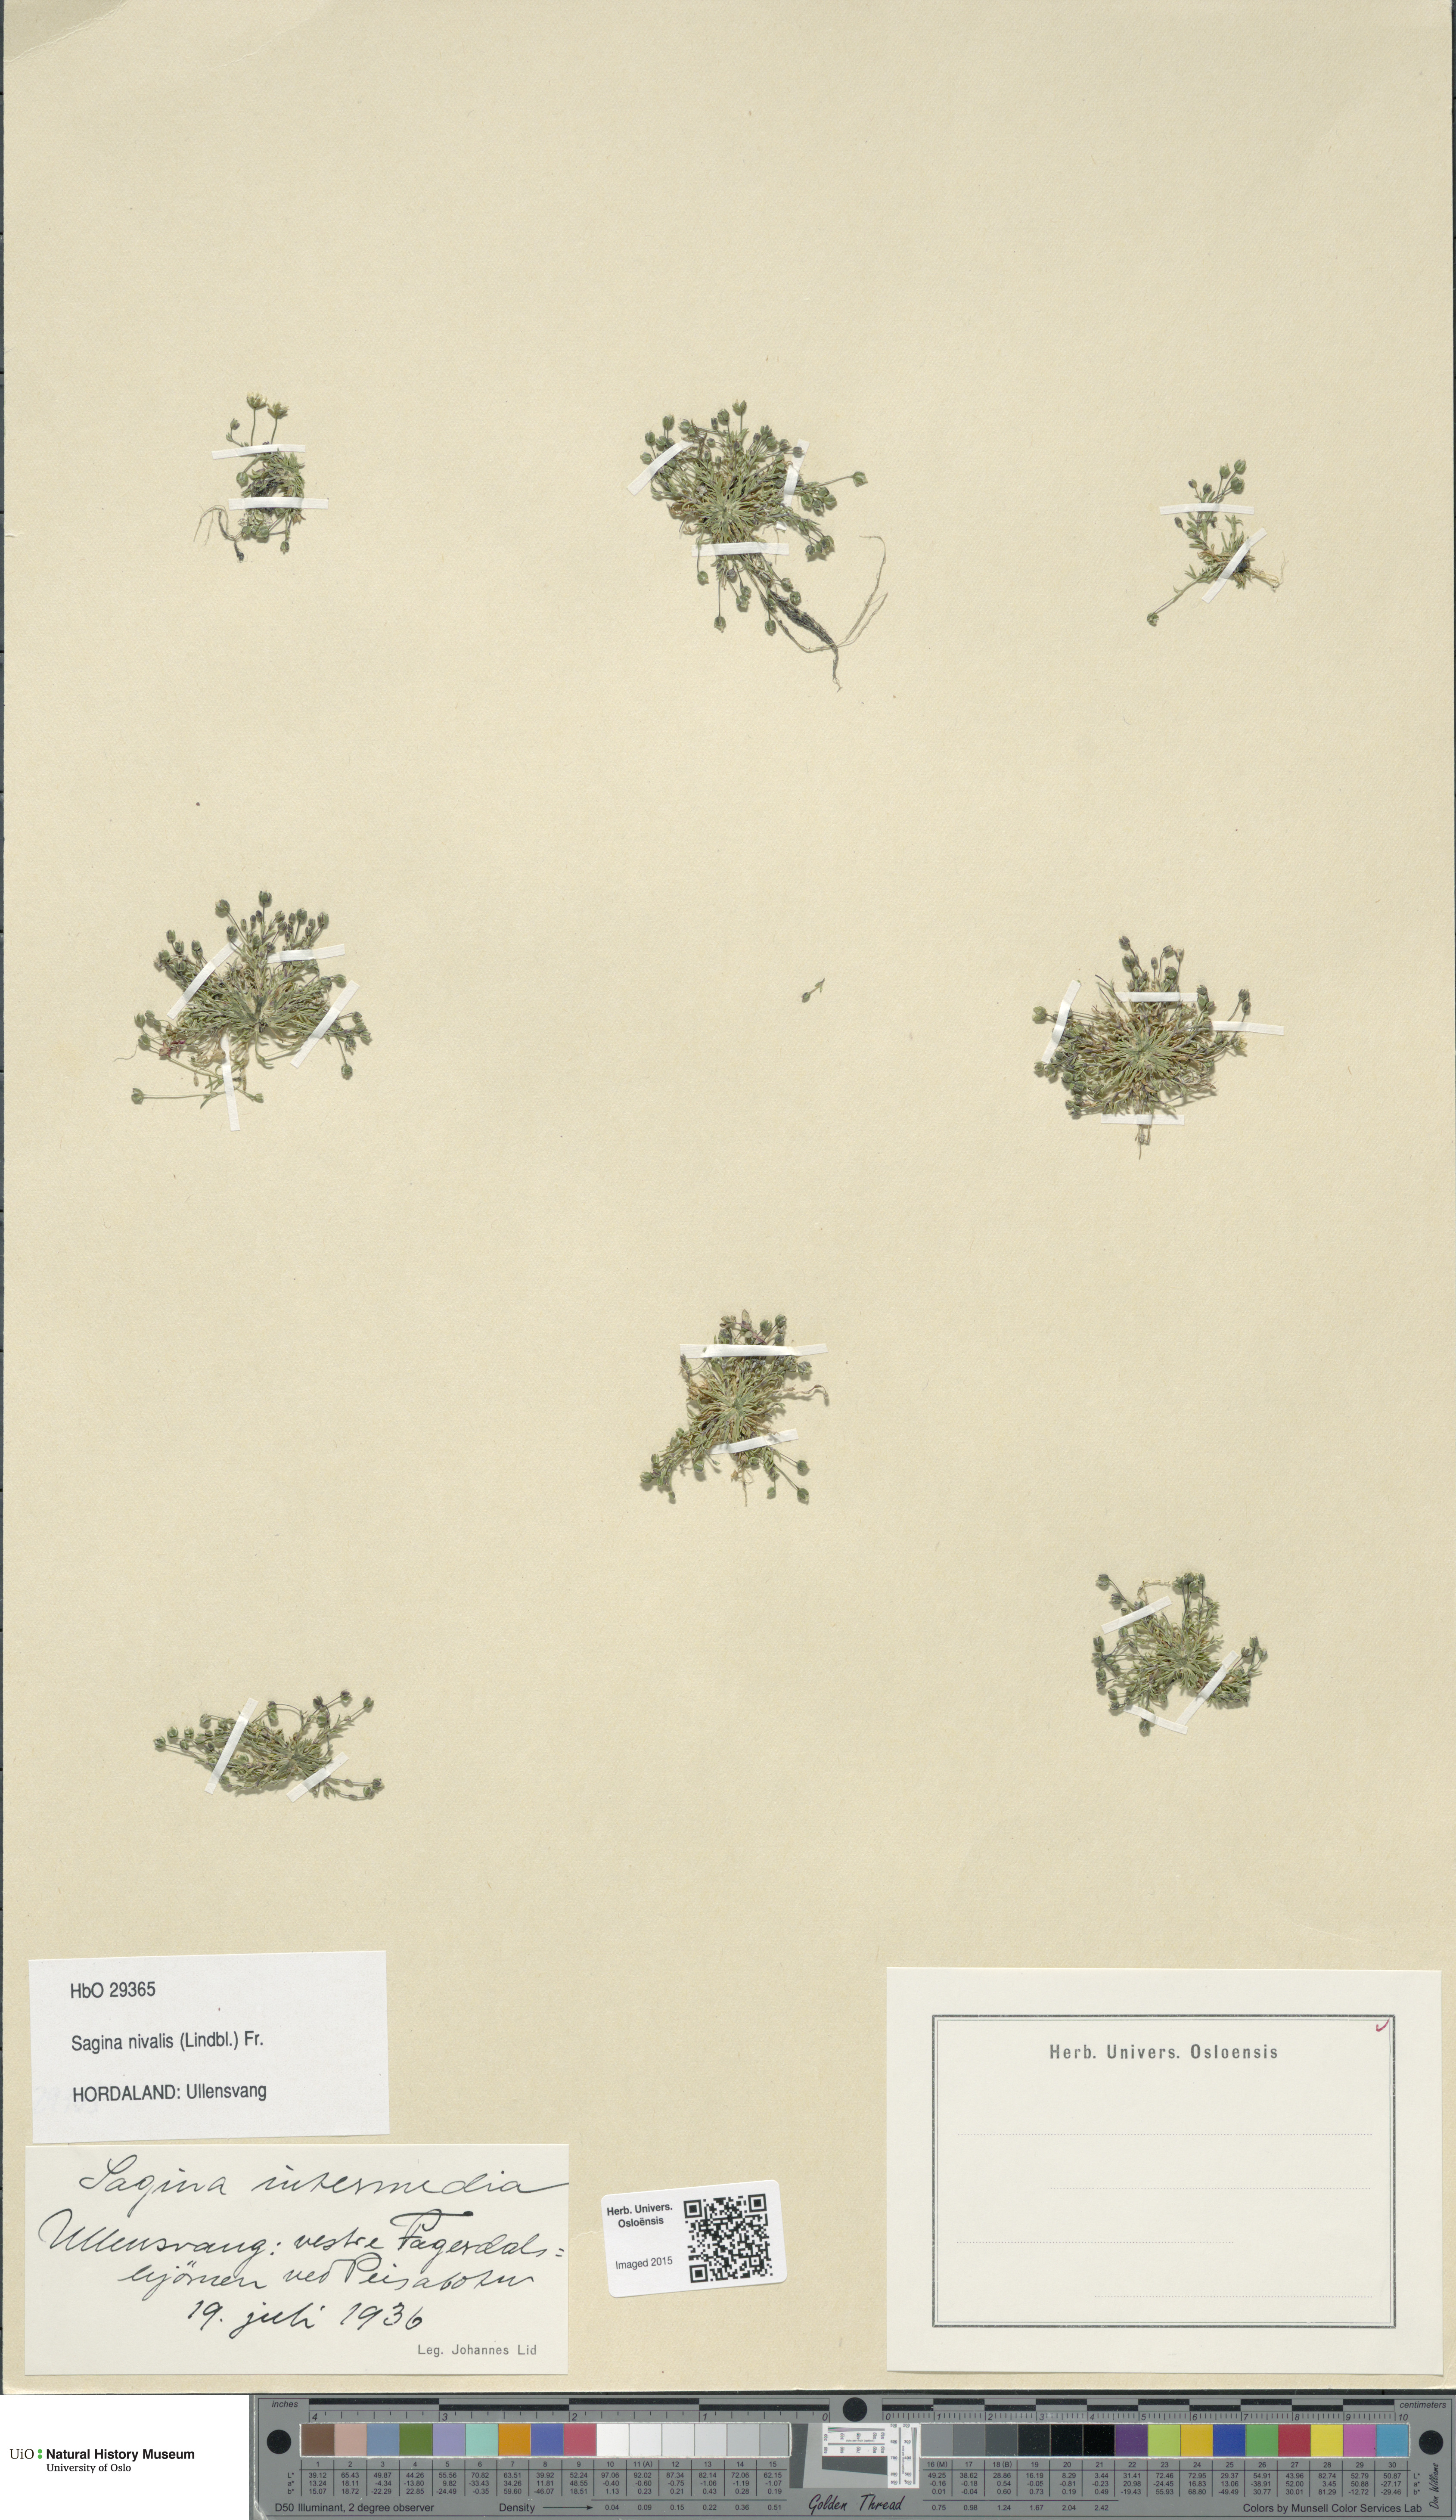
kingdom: Plantae
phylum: Tracheophyta
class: Magnoliopsida
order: Caryophyllales
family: Caryophyllaceae
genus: Sagina
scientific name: Sagina nivalis
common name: Snow pearlwort
